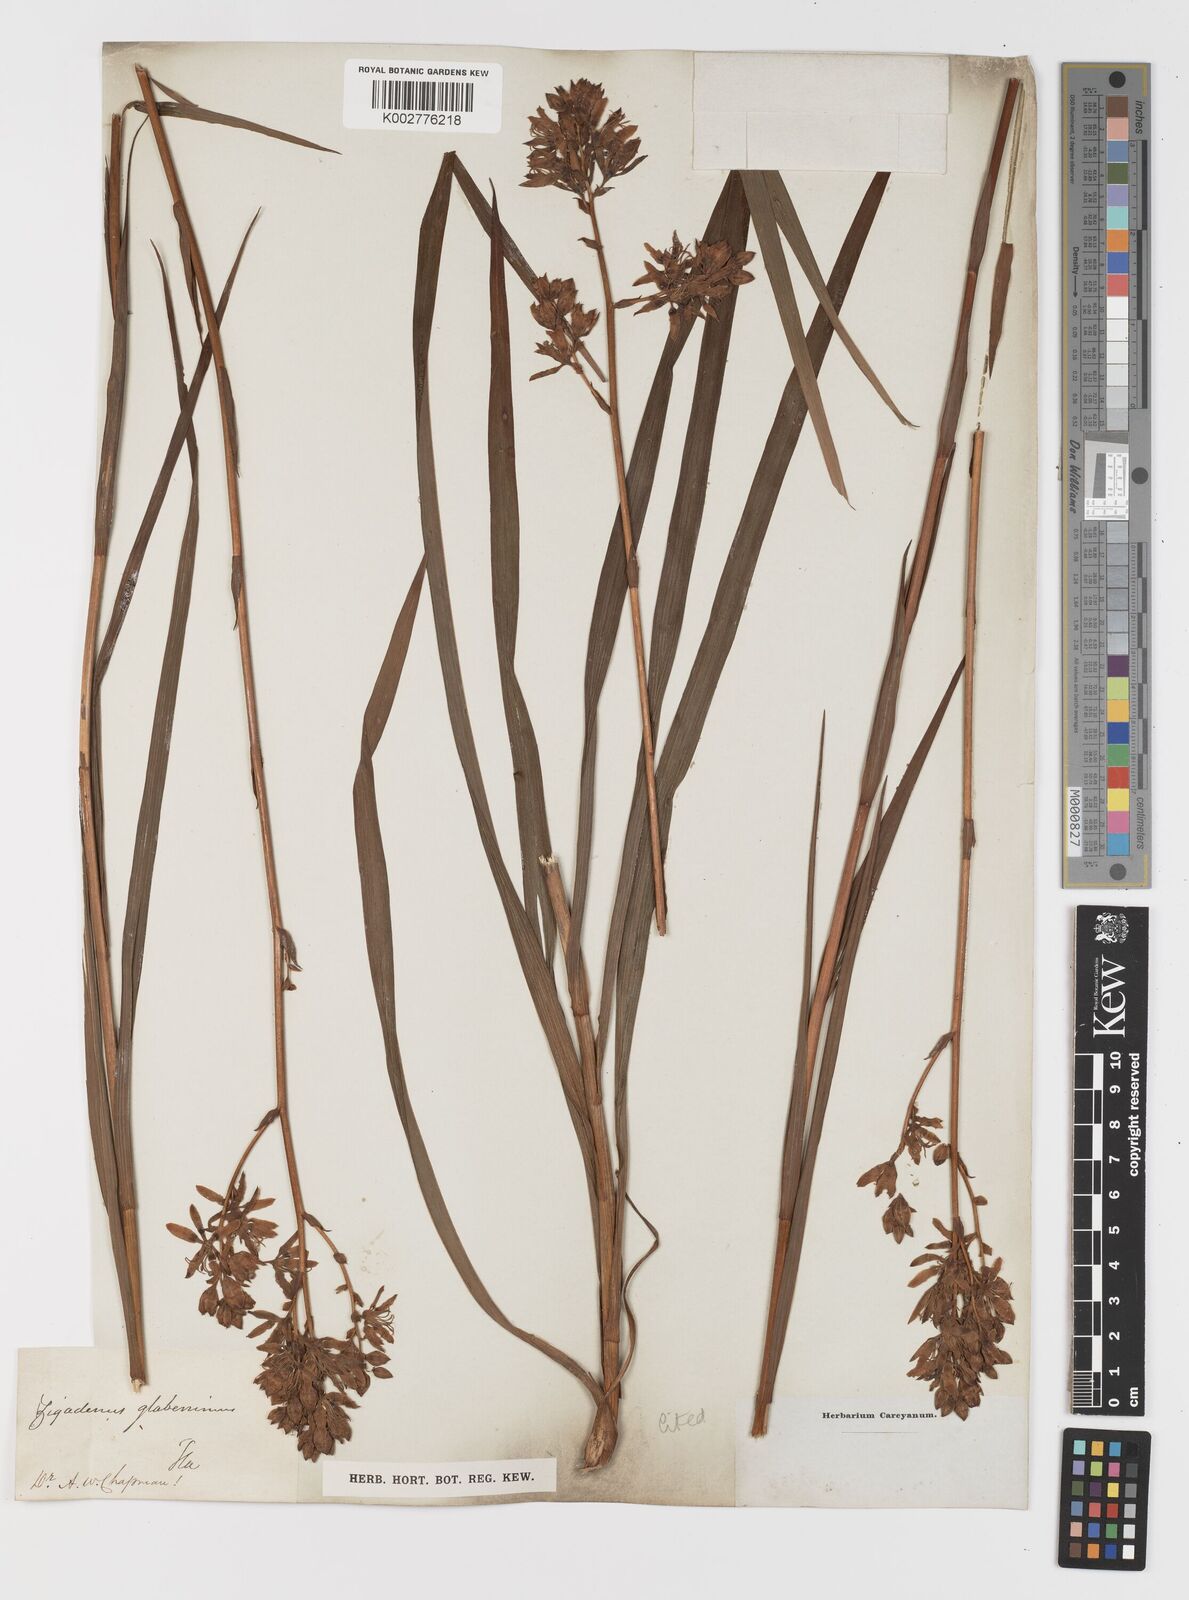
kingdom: Plantae
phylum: Tracheophyta
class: Liliopsida
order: Liliales
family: Melanthiaceae
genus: Zigadenus
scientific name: Zigadenus glaberrimus
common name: Sandbog death camas
